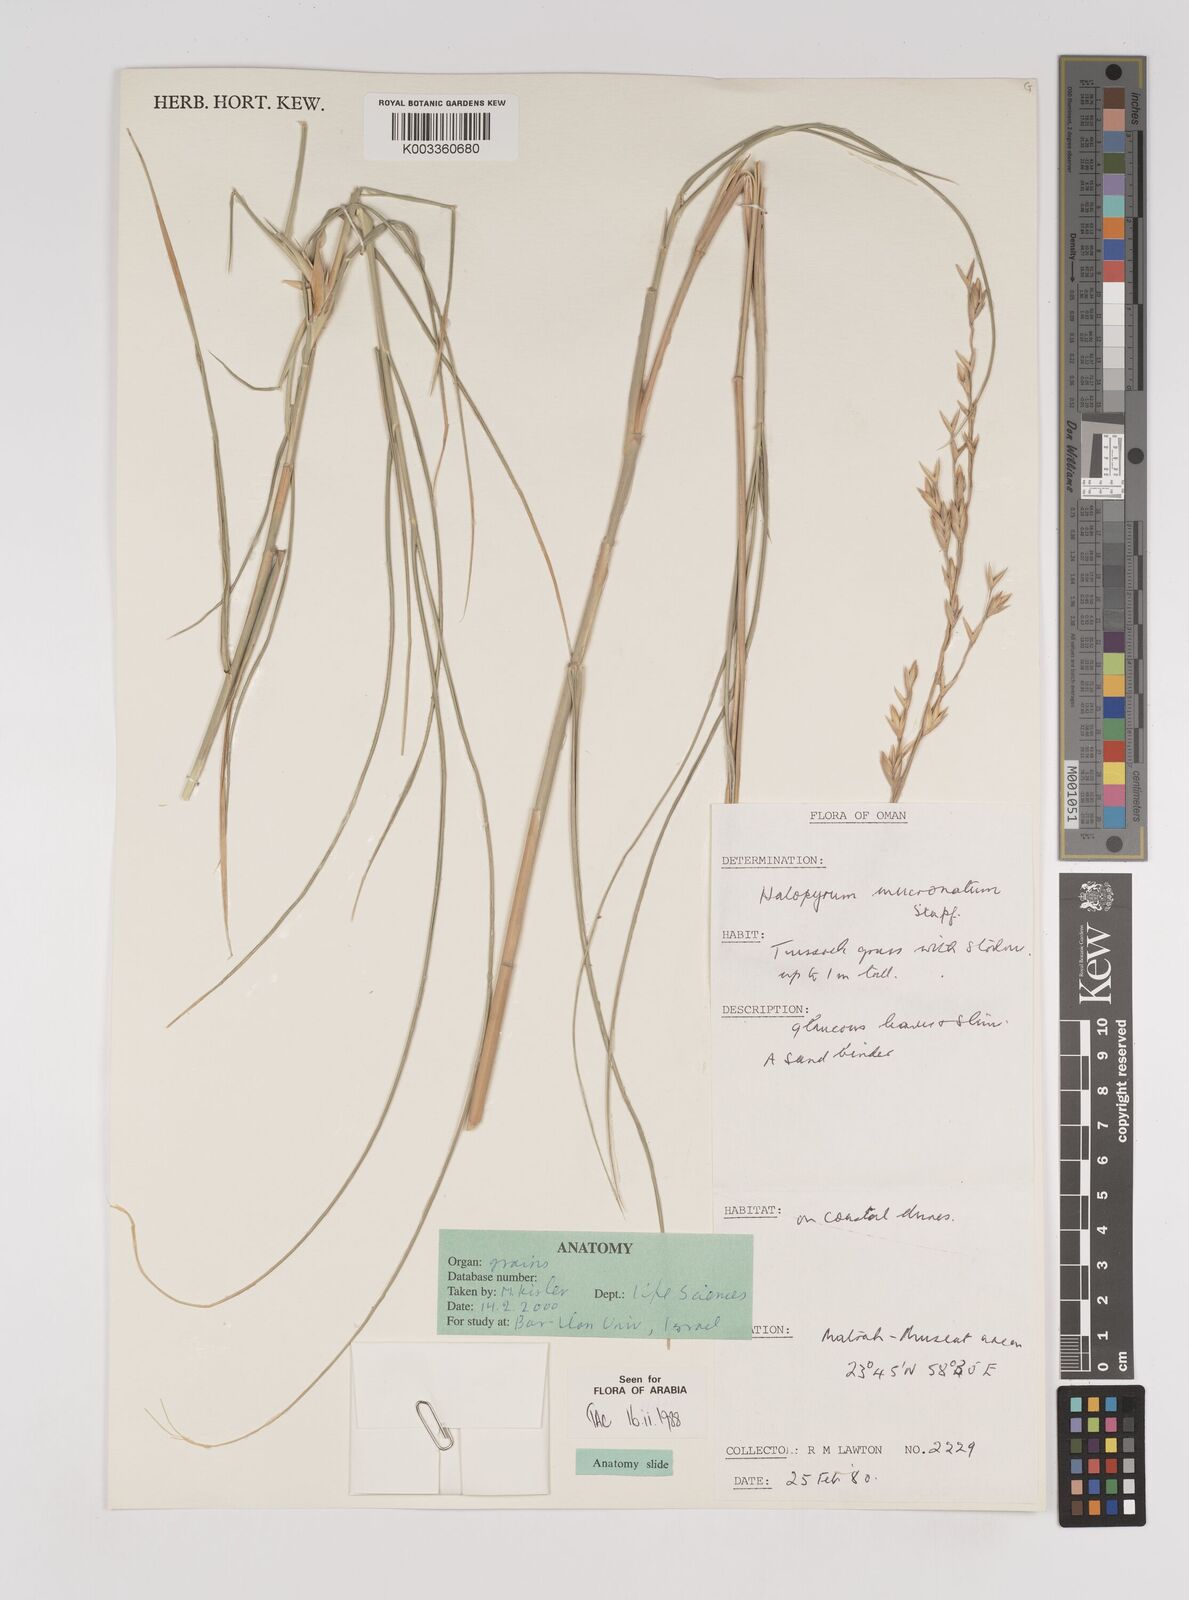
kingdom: Plantae
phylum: Tracheophyta
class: Liliopsida
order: Poales
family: Poaceae
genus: Halopyrum
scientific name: Halopyrum mucronatum
